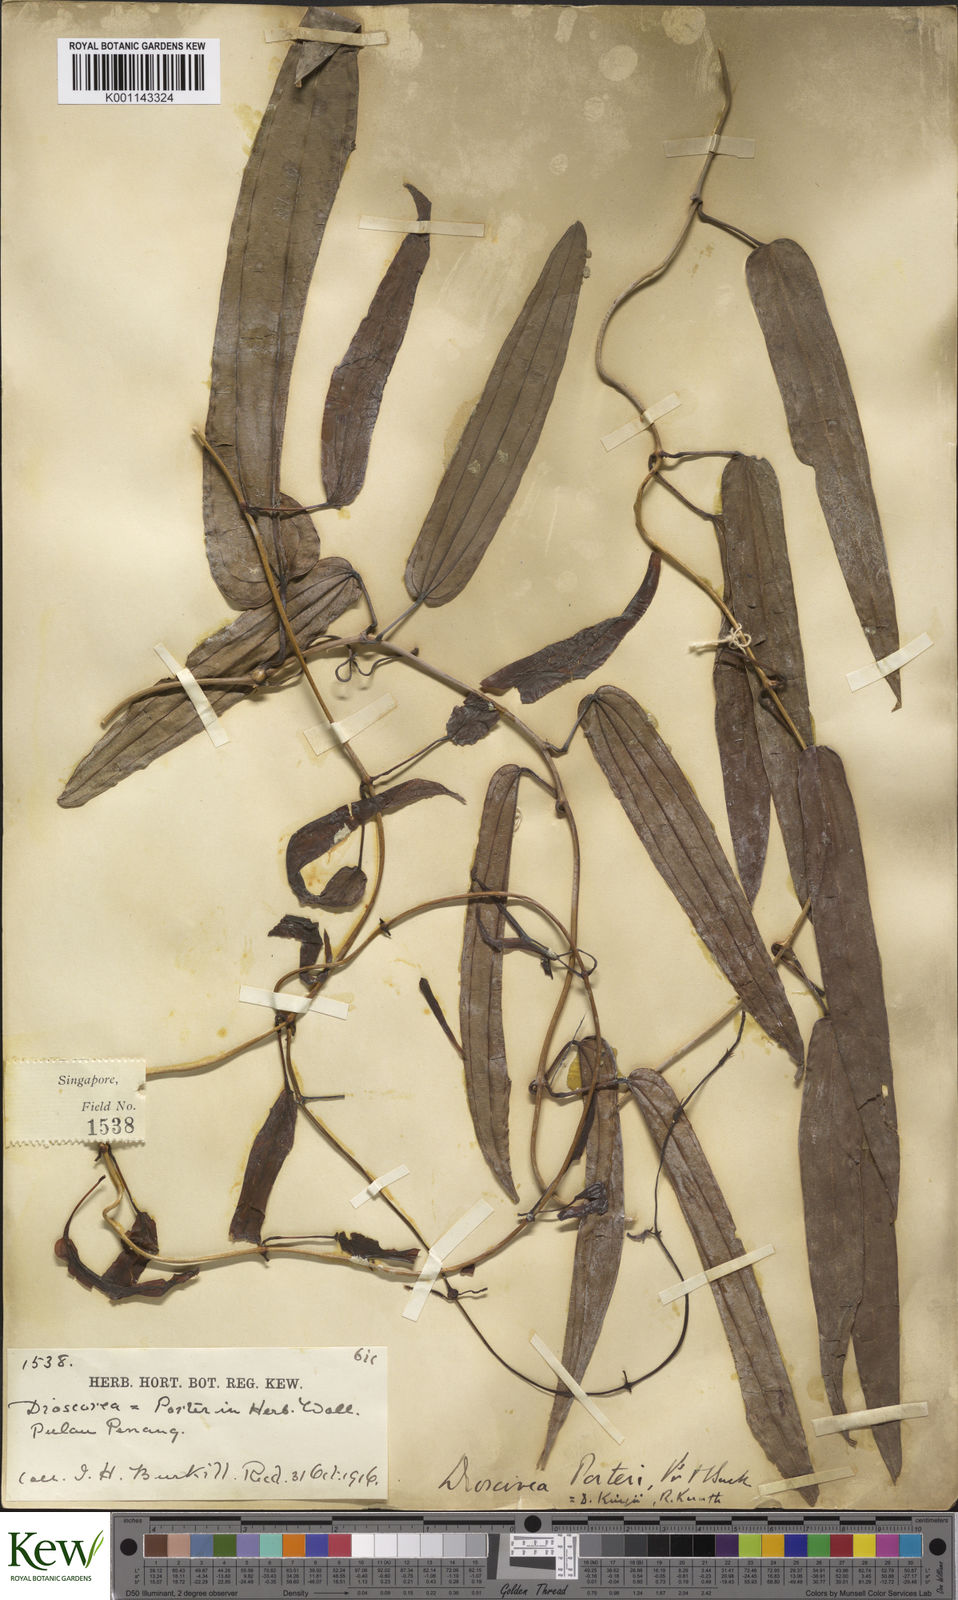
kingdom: Plantae
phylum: Tracheophyta
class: Liliopsida
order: Dioscoreales
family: Dioscoreaceae
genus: Dioscorea
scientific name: Dioscorea kingii
